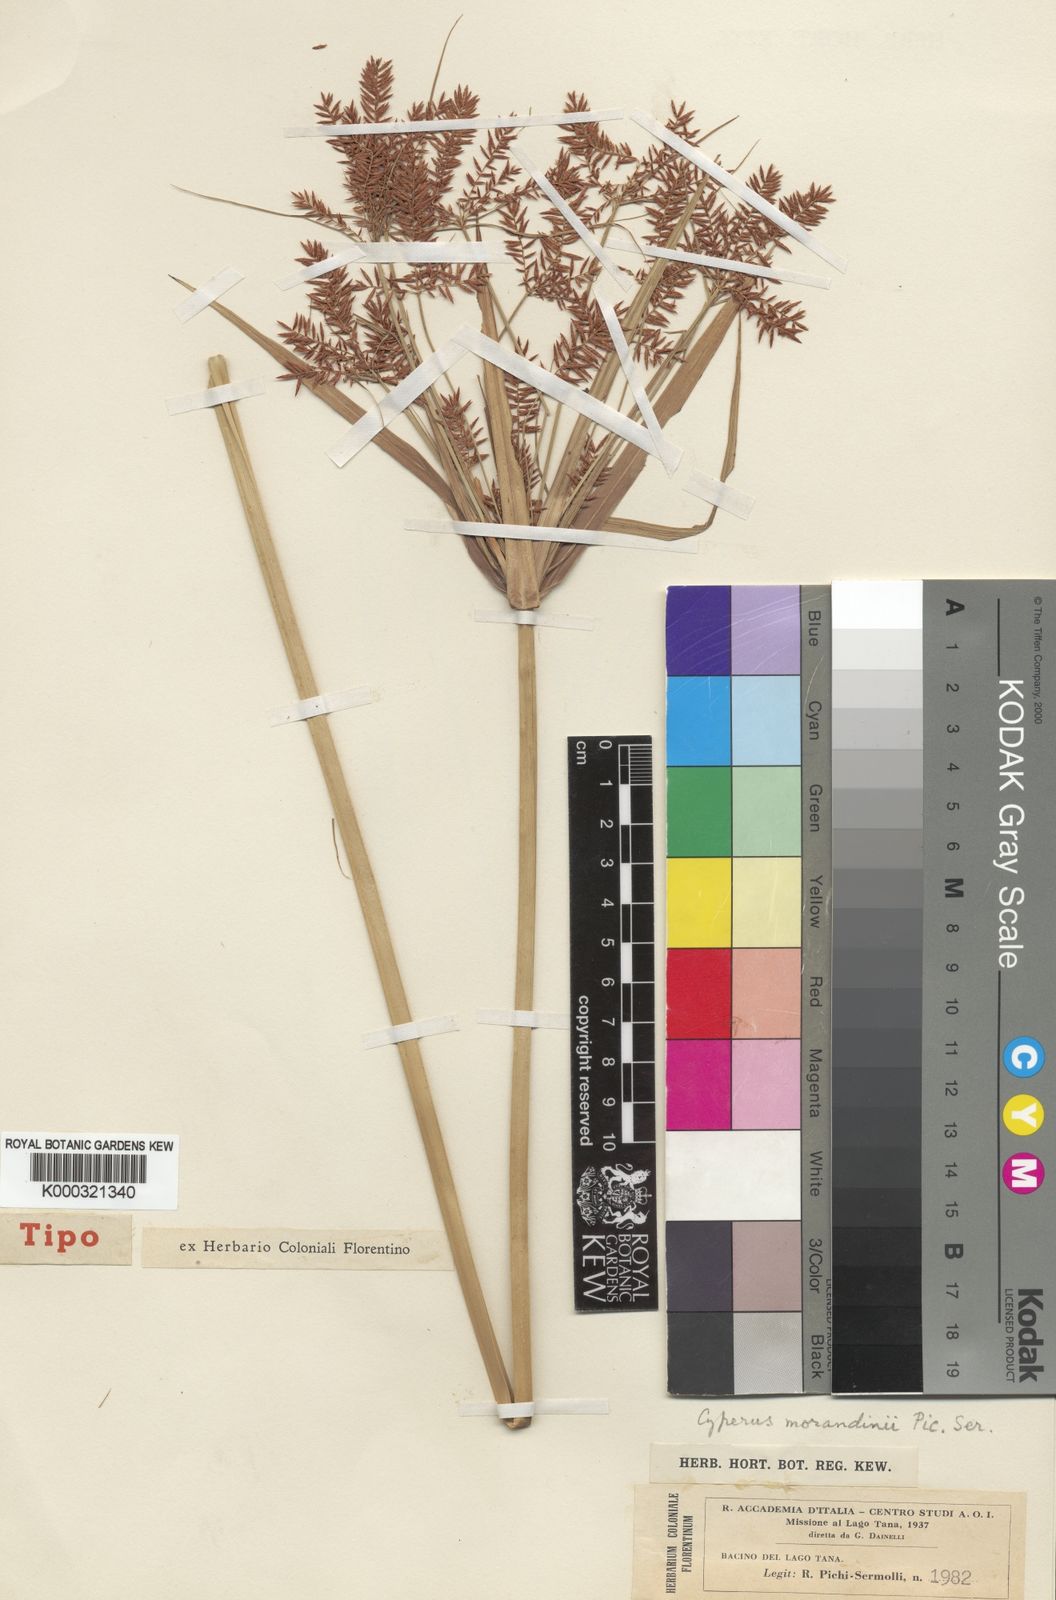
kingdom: Plantae
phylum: Tracheophyta
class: Liliopsida
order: Poales
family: Cyperaceae
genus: Cyperus
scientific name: Cyperus penzoanus
